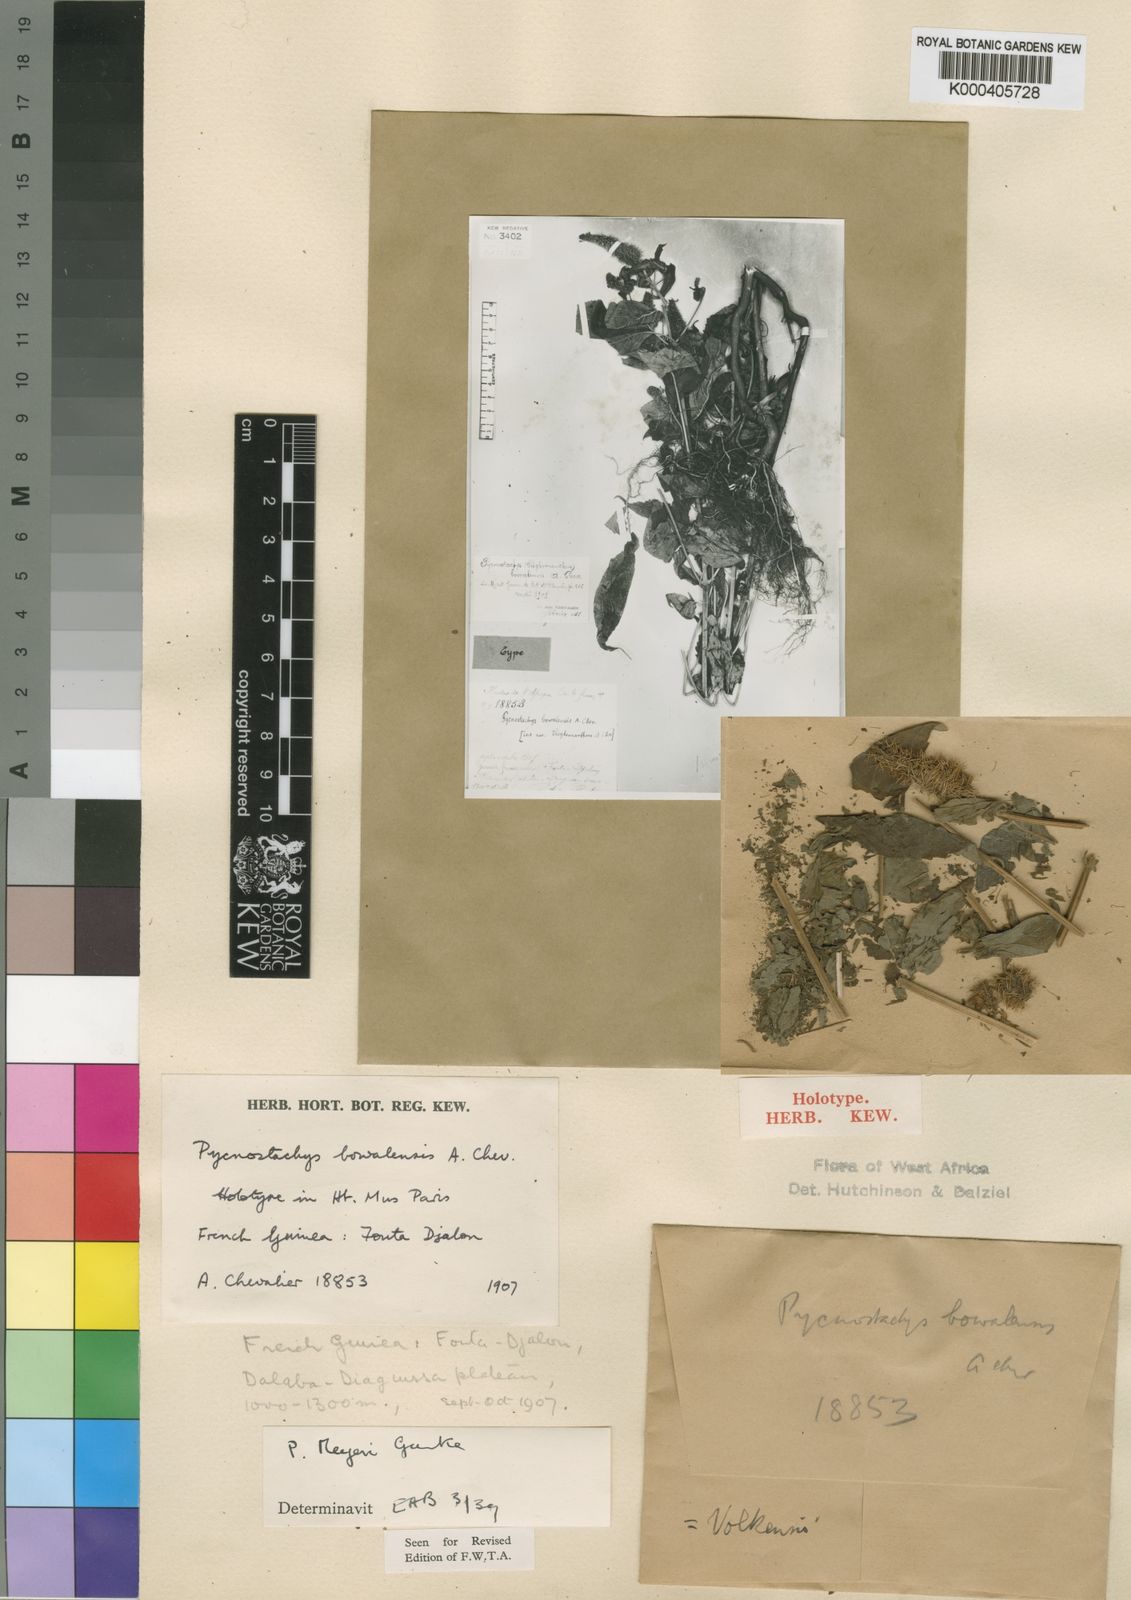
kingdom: Plantae
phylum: Tracheophyta
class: Magnoliopsida
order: Lamiales
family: Lamiaceae
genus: Coleus
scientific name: Coleus
